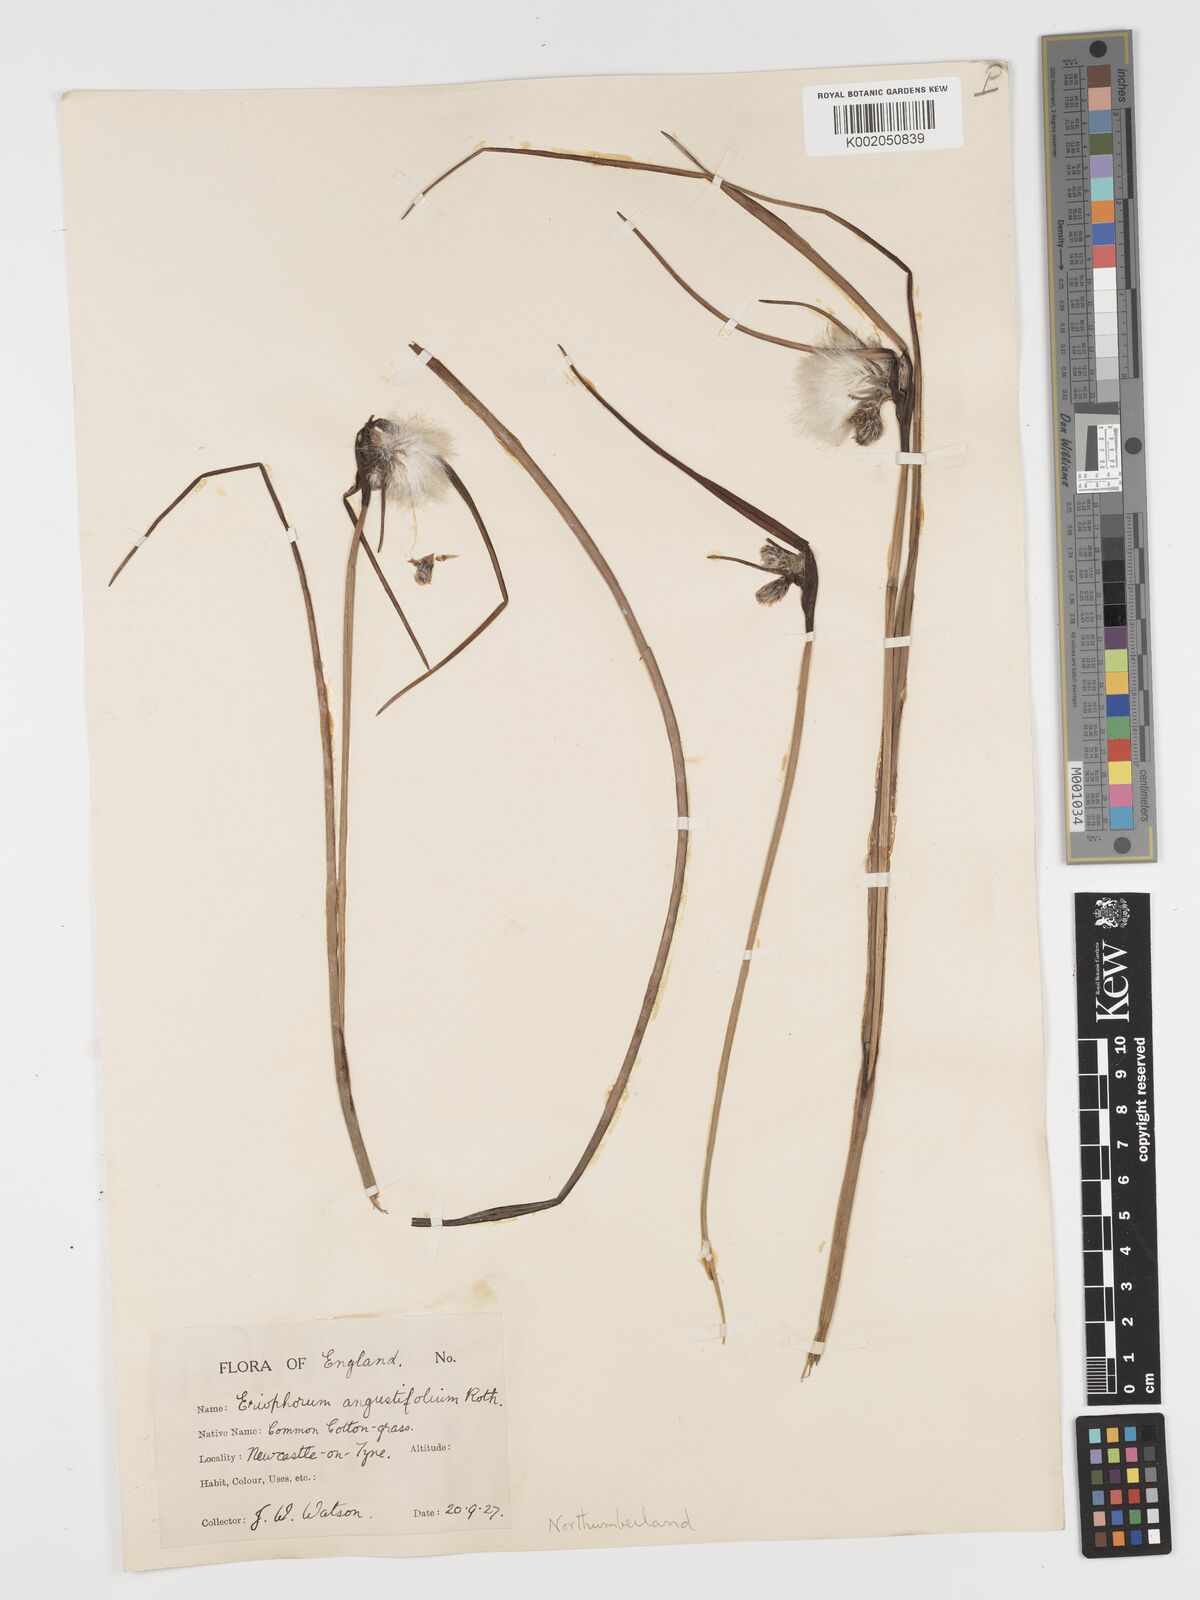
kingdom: Plantae
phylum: Tracheophyta
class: Liliopsida
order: Poales
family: Cyperaceae
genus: Eriophorum
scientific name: Eriophorum angustifolium
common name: Common cottongrass
